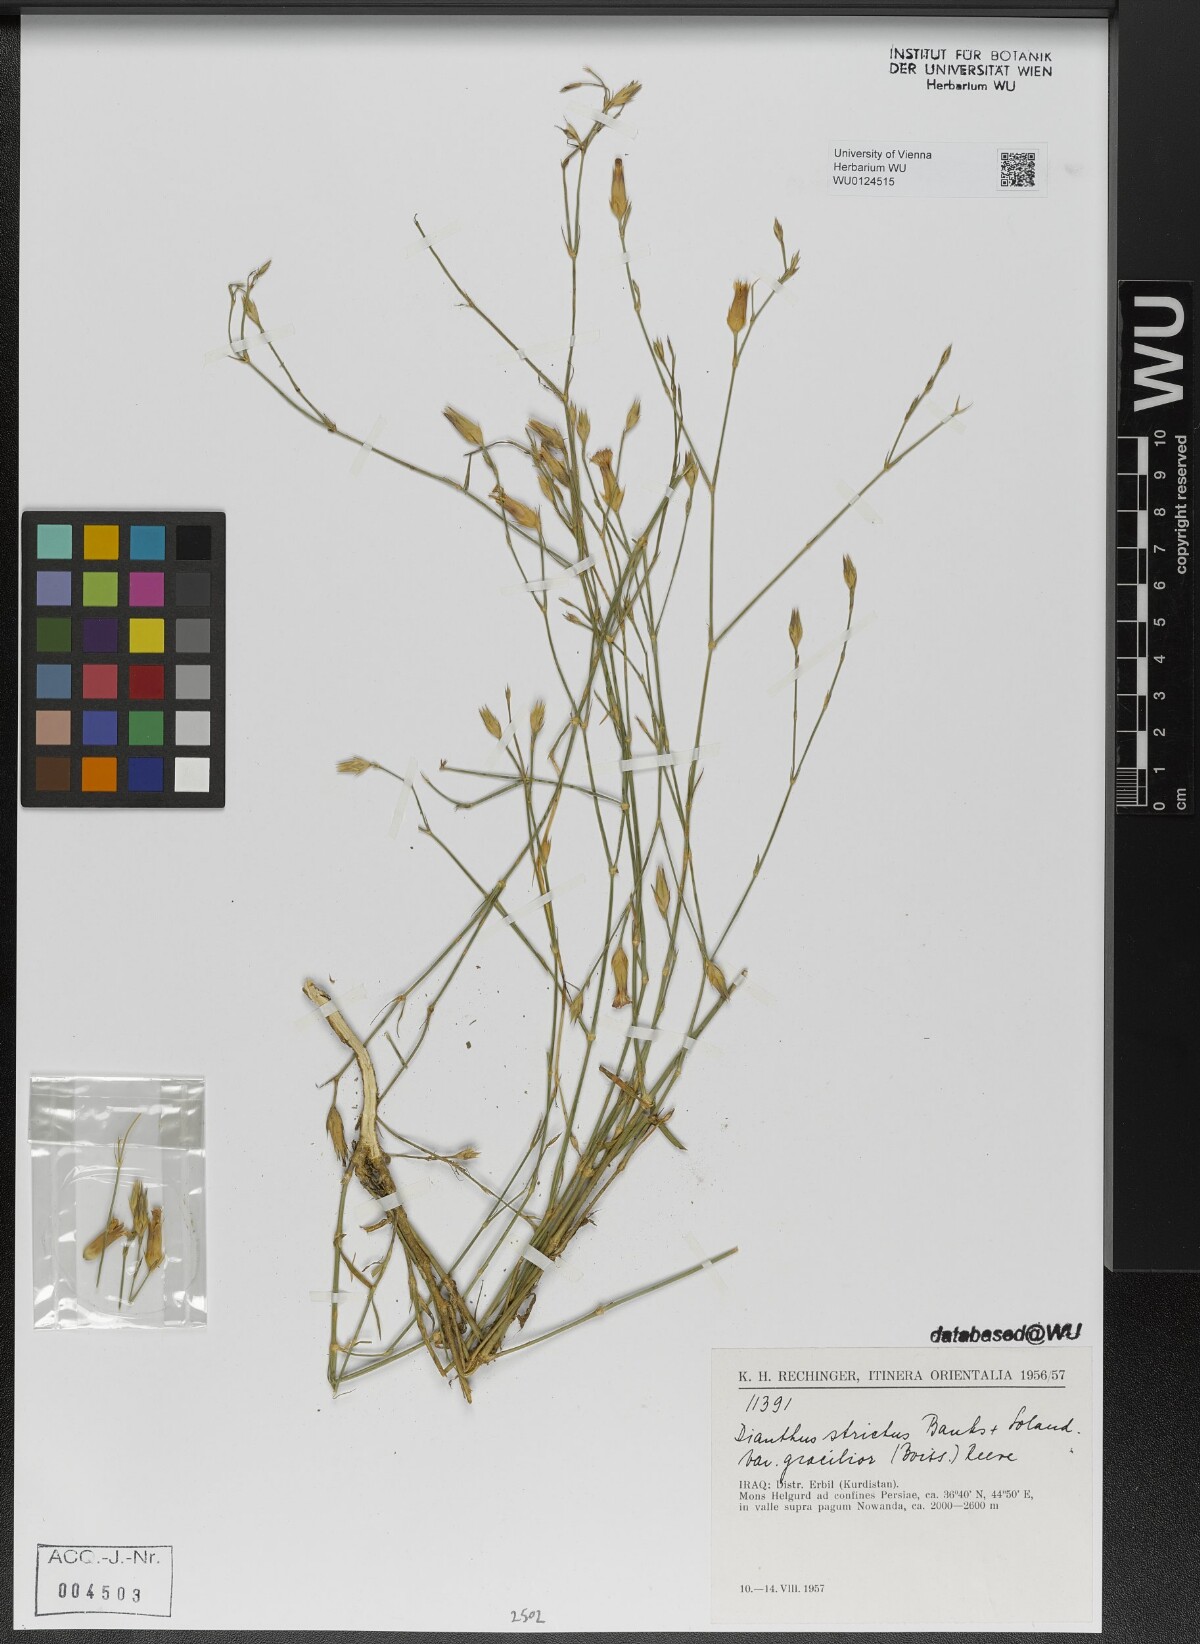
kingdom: Plantae
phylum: Tracheophyta
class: Magnoliopsida
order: Caryophyllales
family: Caryophyllaceae
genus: Dianthus
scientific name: Dianthus strictus
